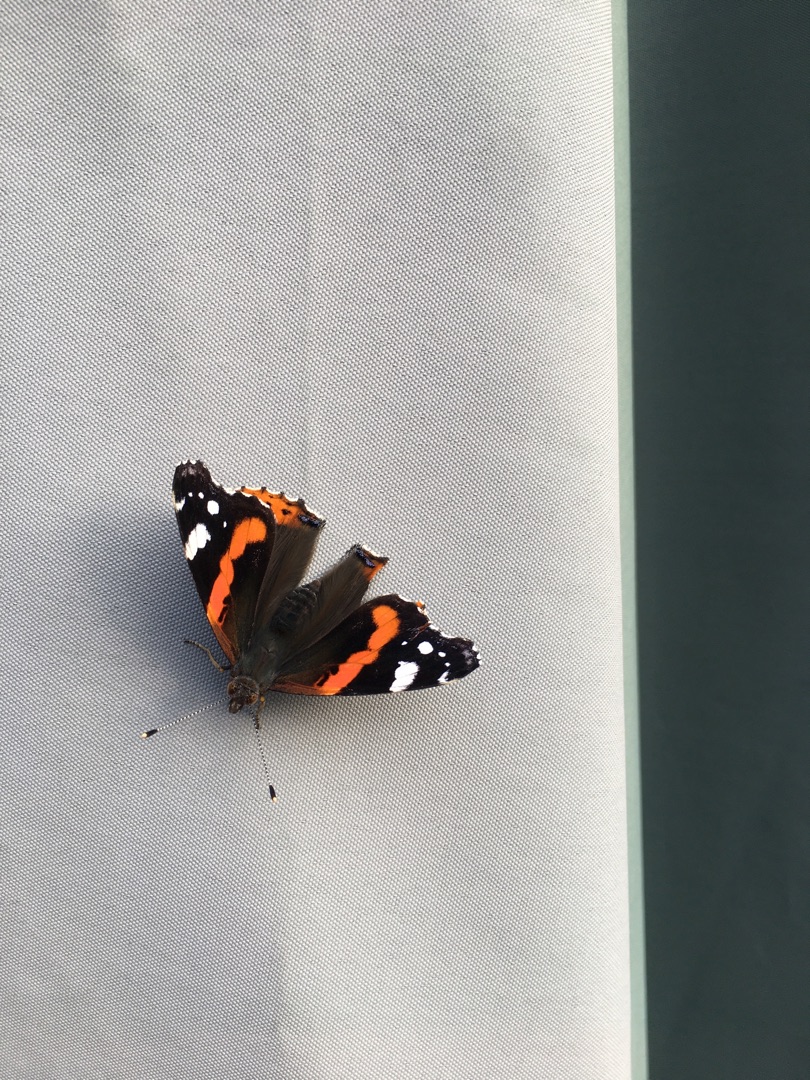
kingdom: Animalia
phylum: Arthropoda
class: Insecta
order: Lepidoptera
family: Nymphalidae
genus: Vanessa
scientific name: Vanessa atalanta
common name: Admiral
